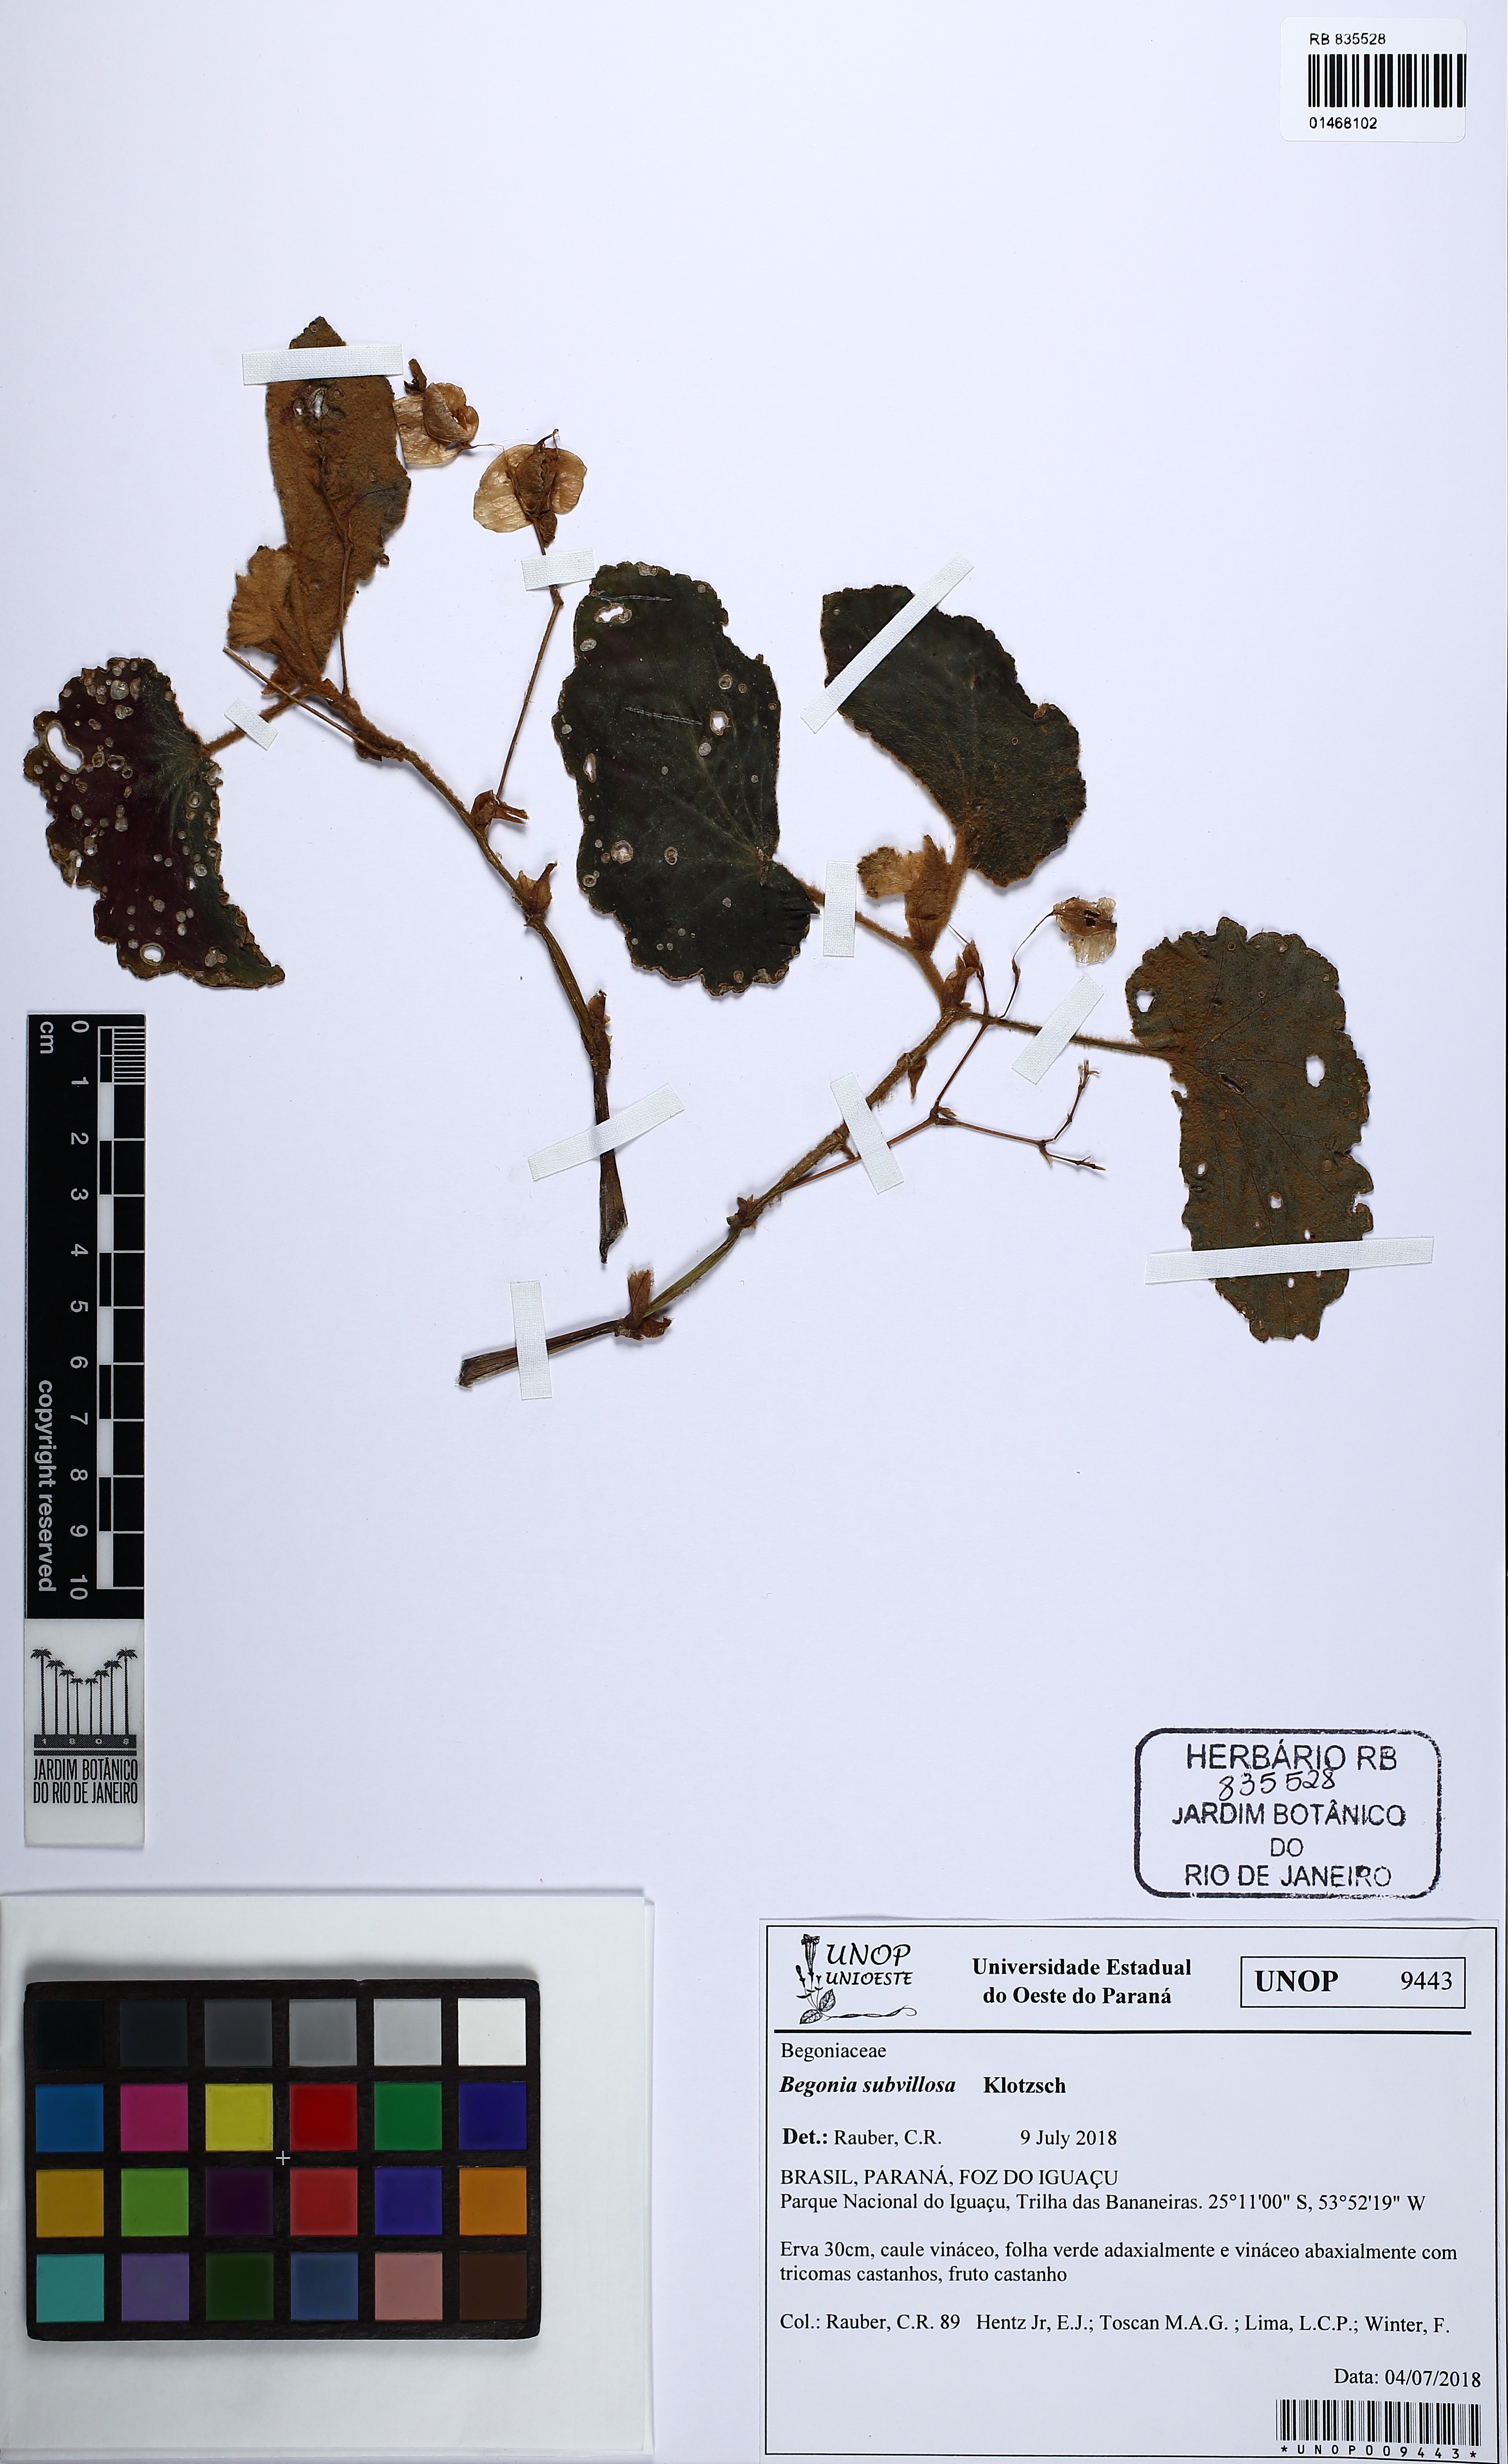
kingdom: Plantae
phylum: Tracheophyta
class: Magnoliopsida
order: Cucurbitales
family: Begoniaceae
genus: Begonia
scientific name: Begonia subvillosa
